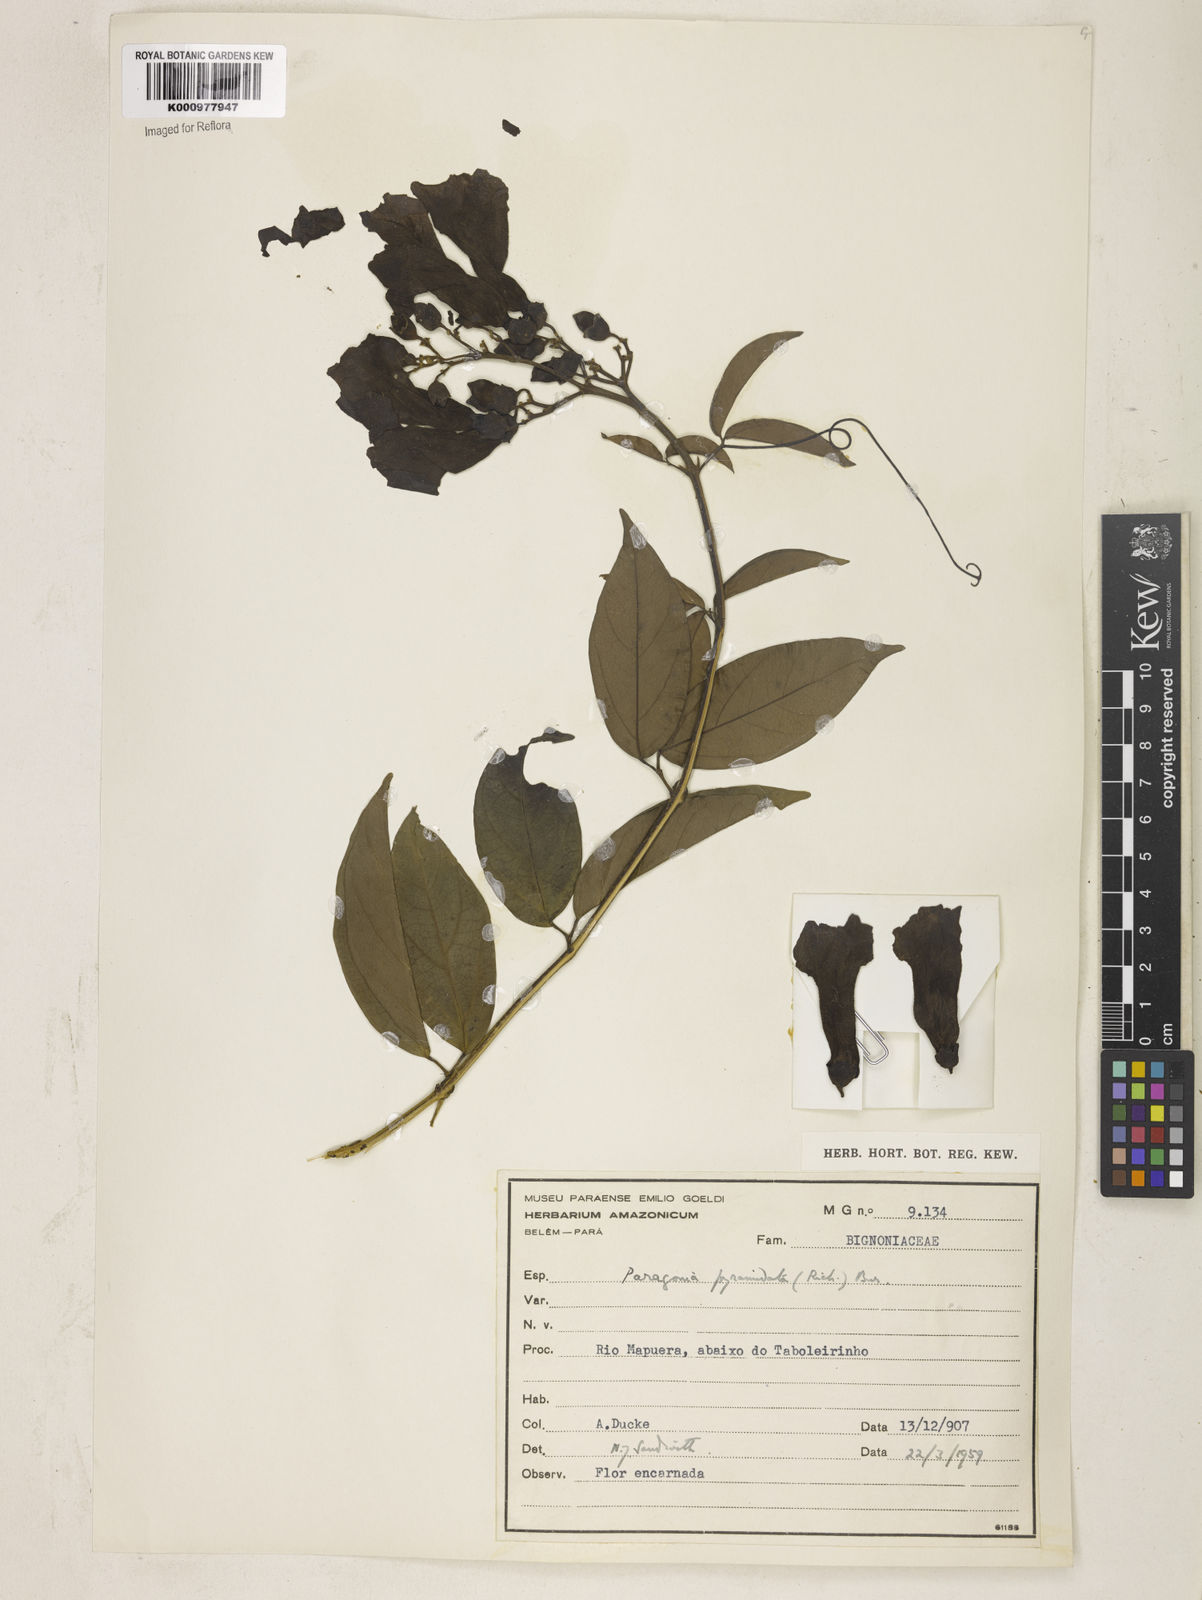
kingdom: Plantae
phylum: Tracheophyta
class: Magnoliopsida
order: Lamiales
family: Bignoniaceae
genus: Tanaecium
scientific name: Tanaecium pyramidatum
